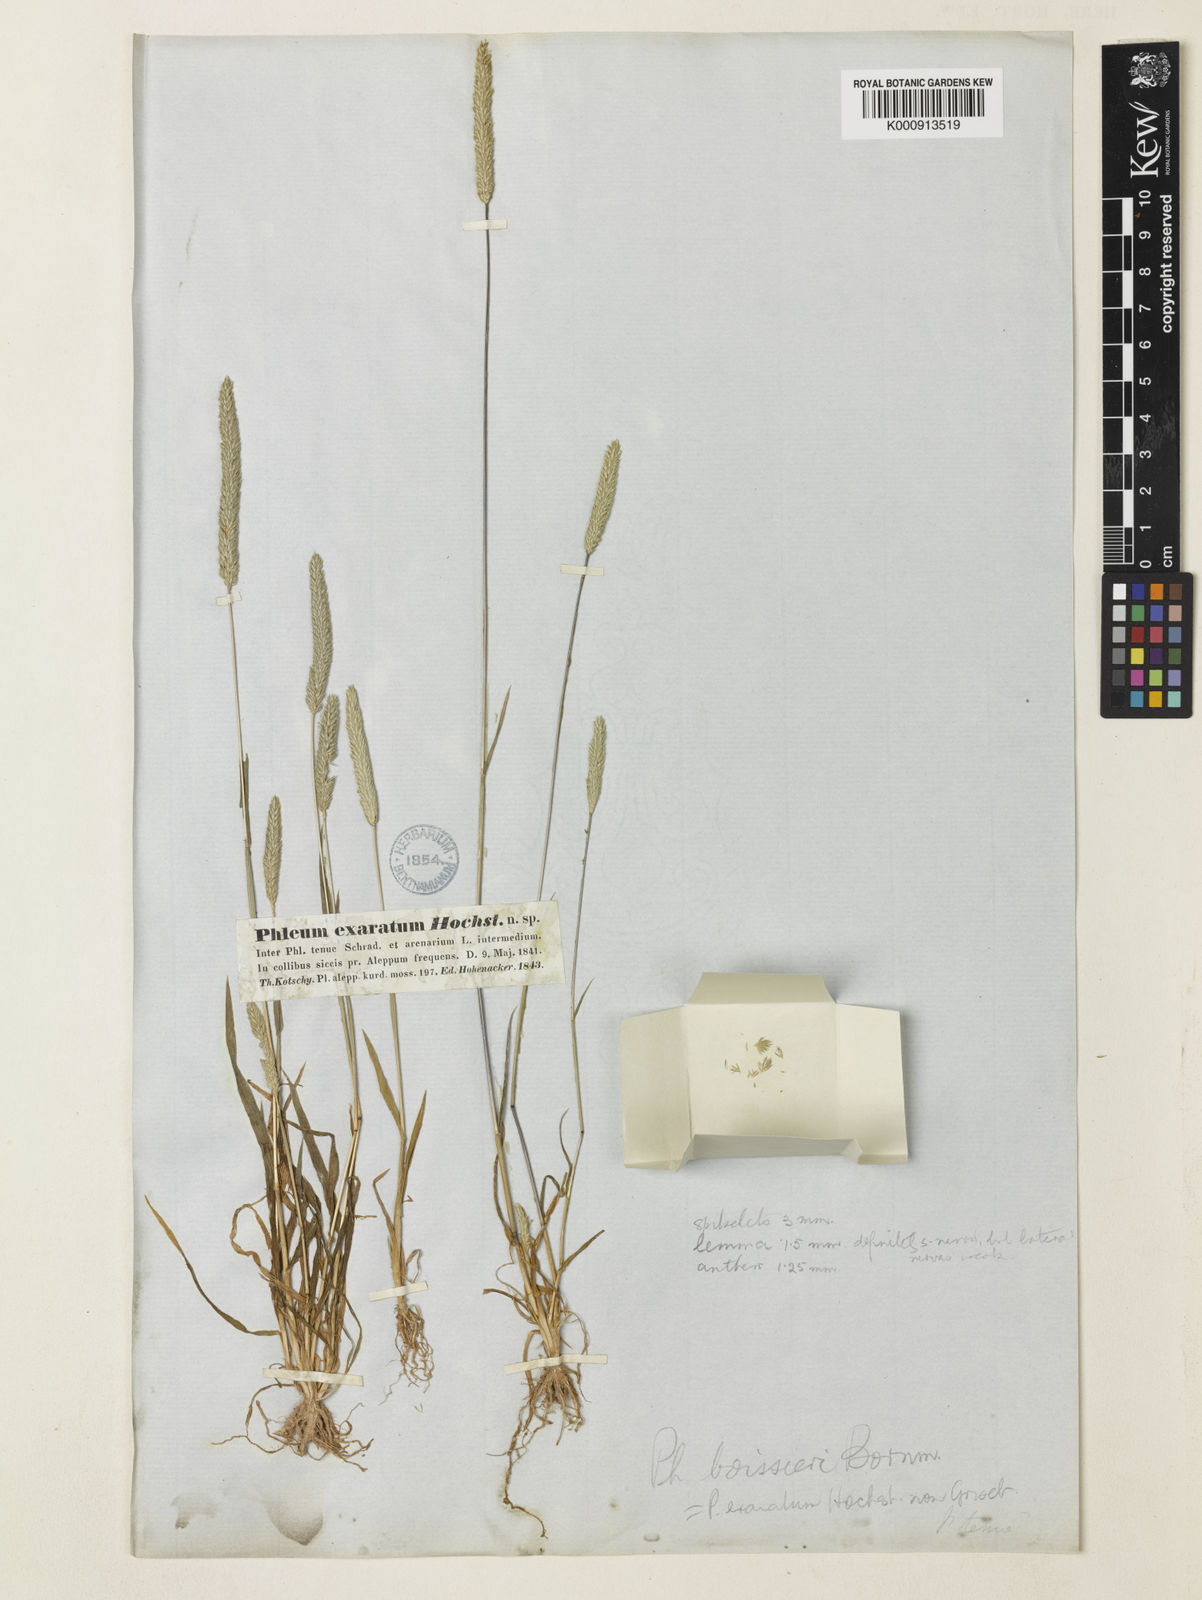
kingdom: Plantae
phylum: Tracheophyta
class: Liliopsida
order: Poales
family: Poaceae
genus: Phleum
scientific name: Phleum boissieri
